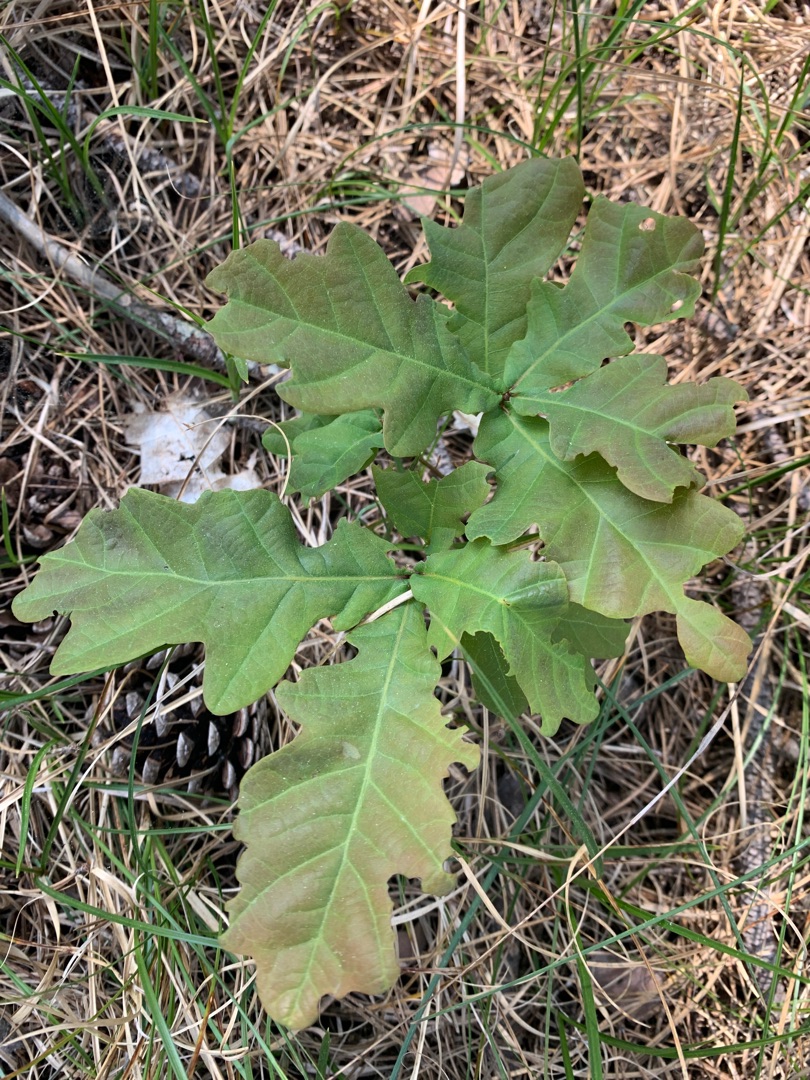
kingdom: Plantae
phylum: Tracheophyta
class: Magnoliopsida
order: Fagales
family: Fagaceae
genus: Quercus
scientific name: Quercus robur
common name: Stilk-eg/almindelig eg
